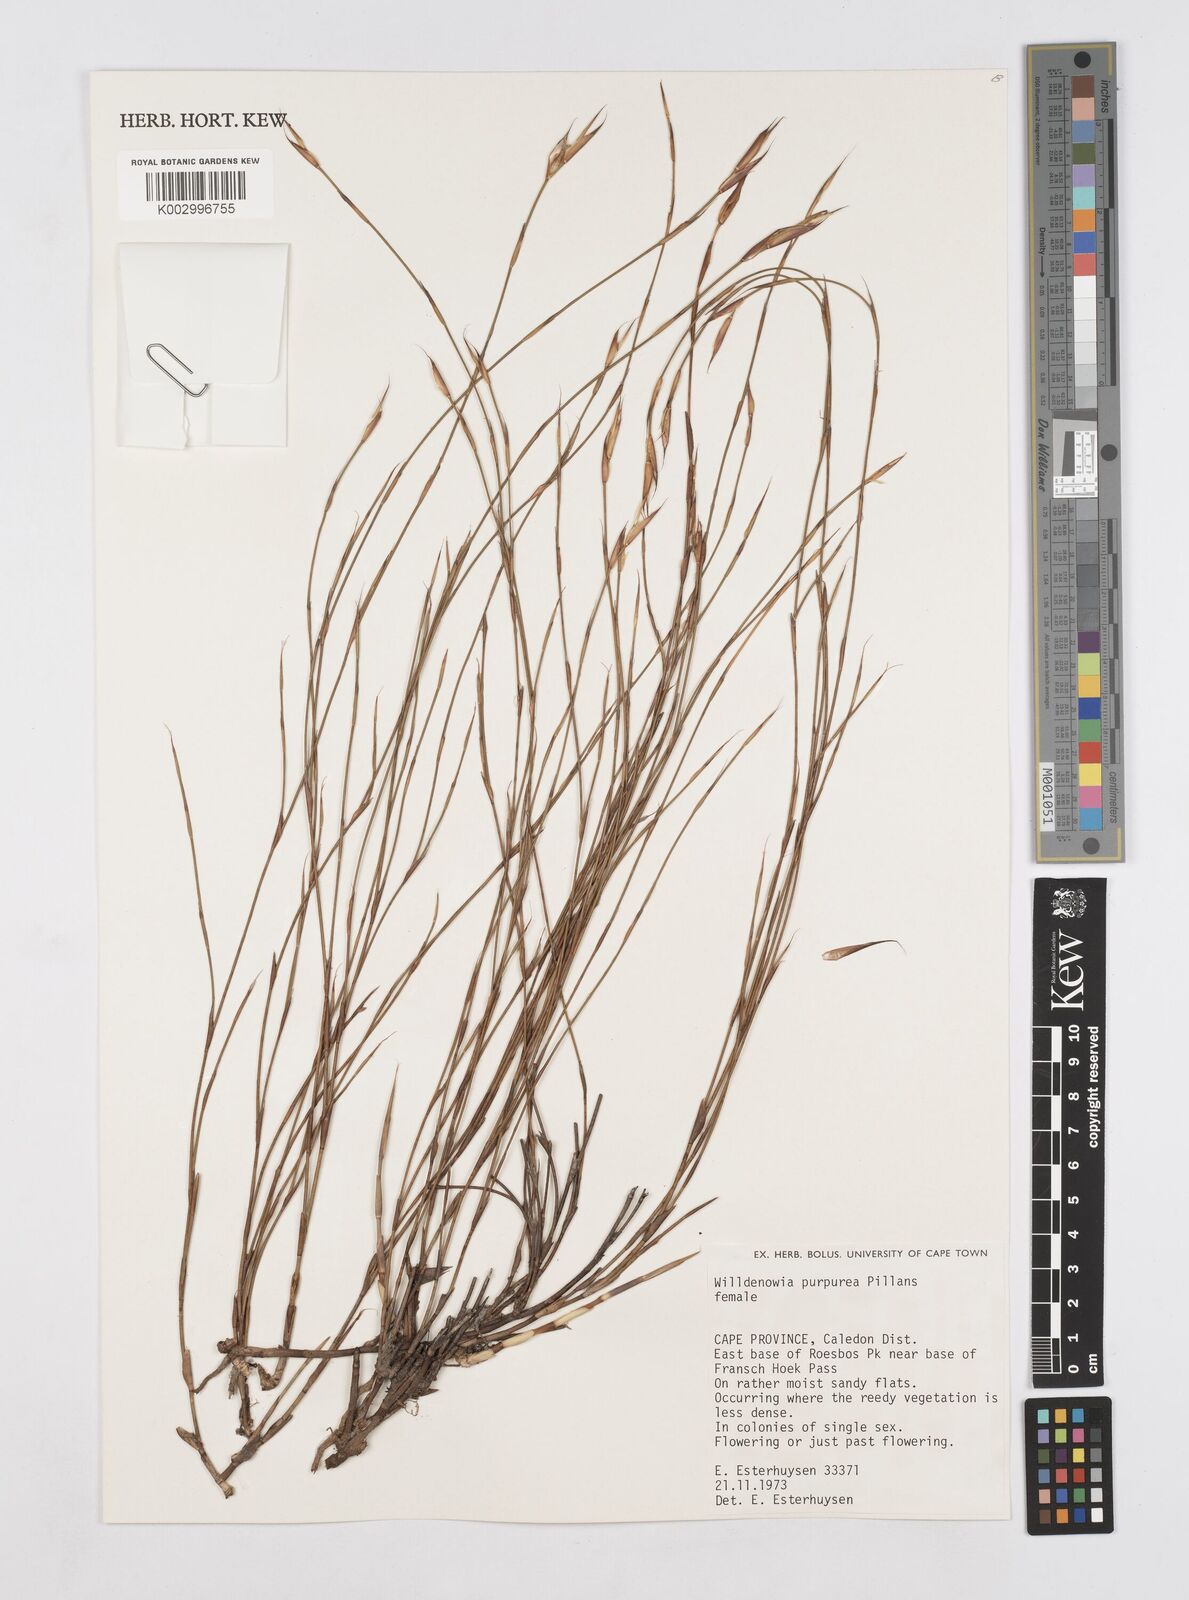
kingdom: Plantae
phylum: Tracheophyta
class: Liliopsida
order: Poales
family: Restionaceae
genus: Willdenowia
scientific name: Willdenowia purpurea
